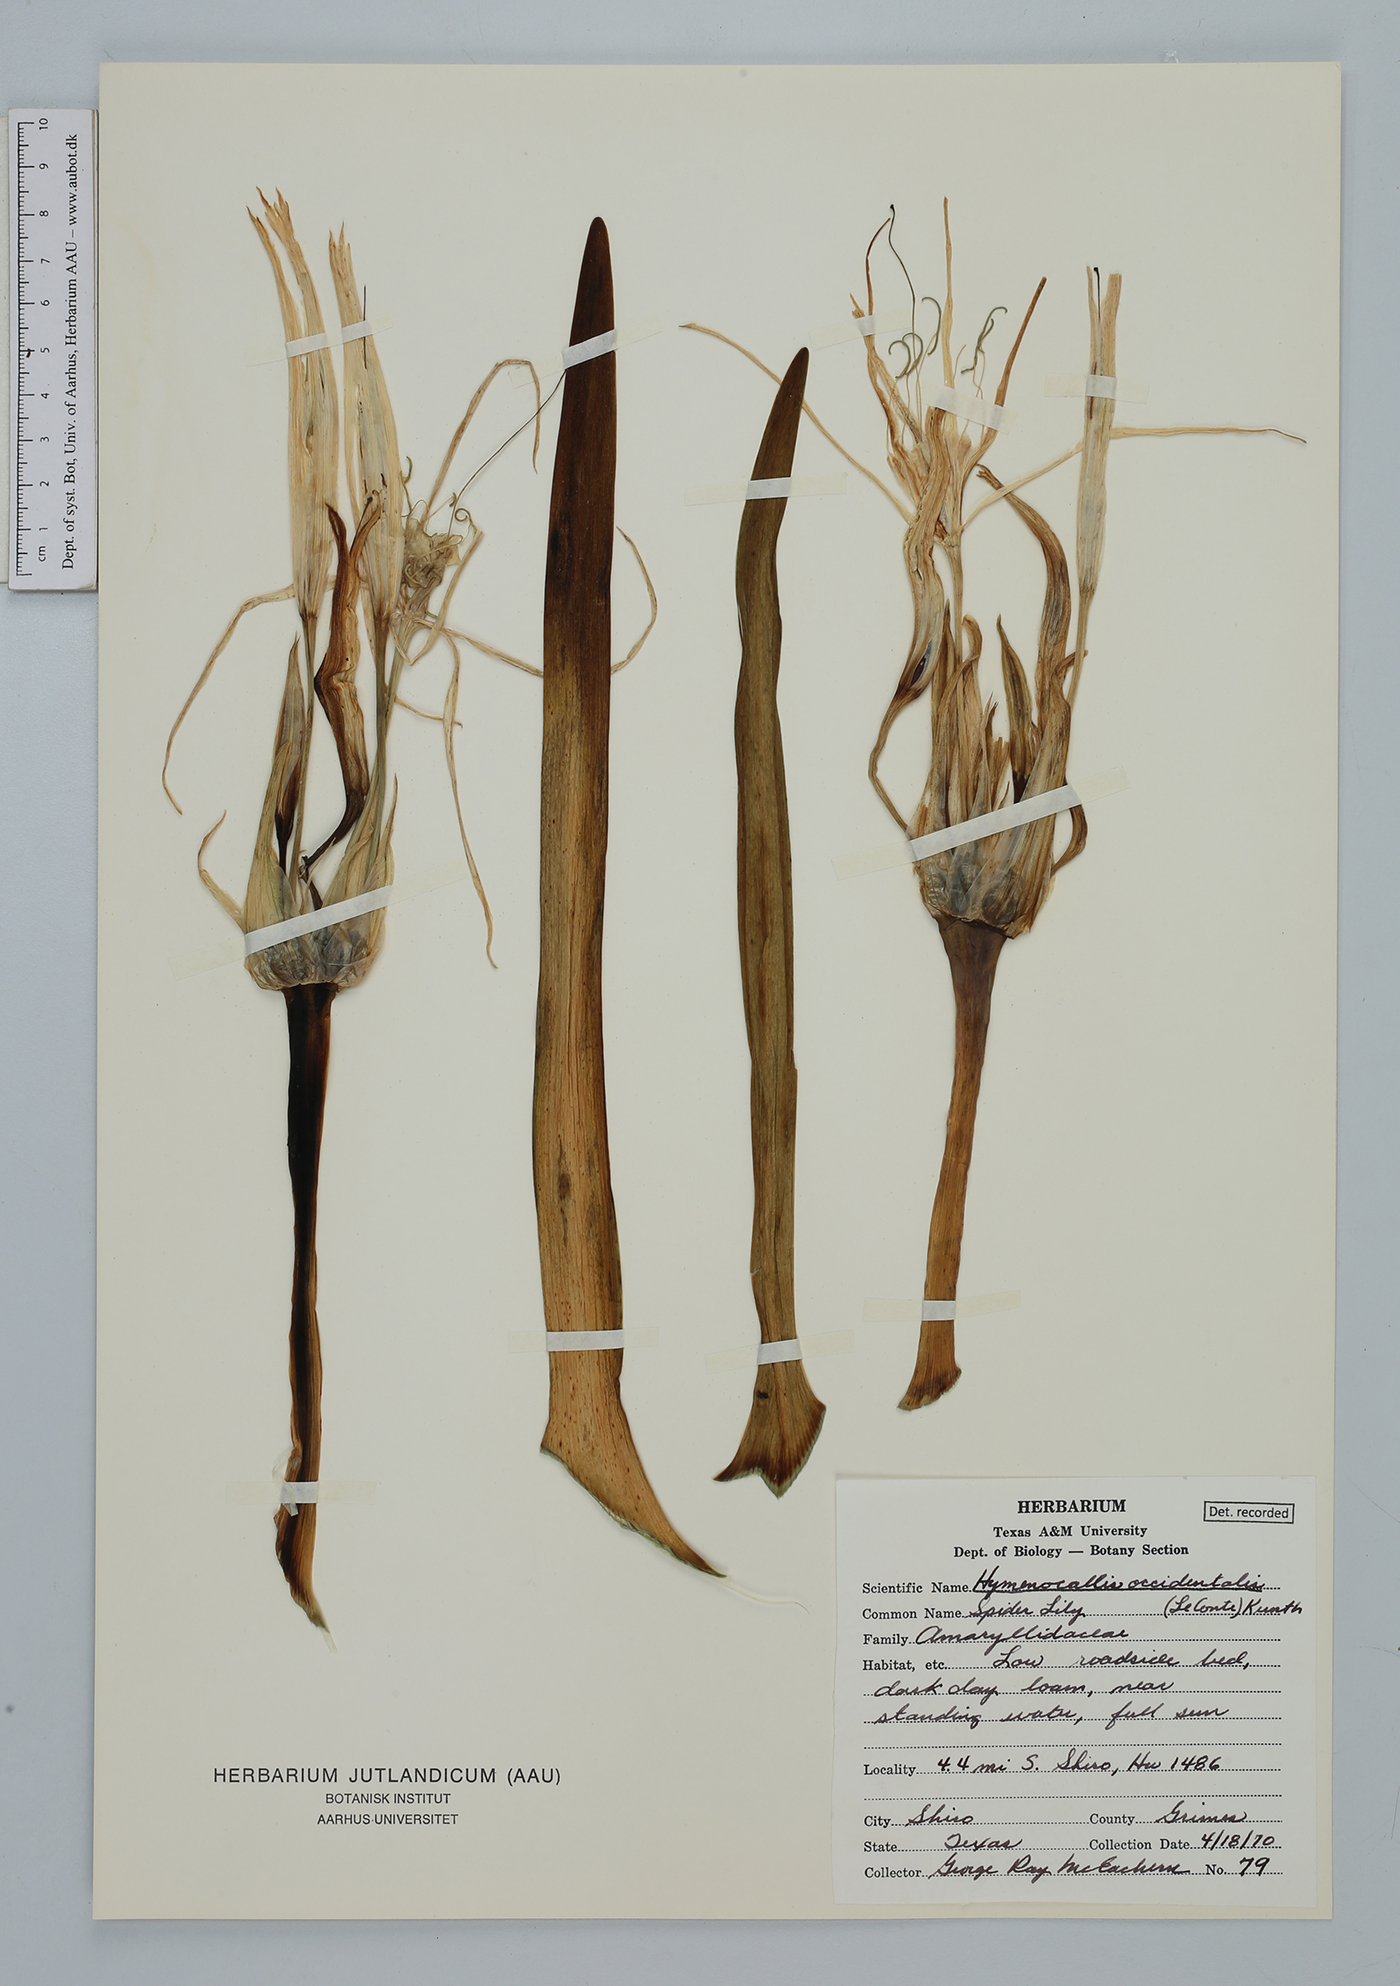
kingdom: Plantae
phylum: Tracheophyta
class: Liliopsida
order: Asparagales
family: Amaryllidaceae
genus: Hymenocallis
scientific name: Hymenocallis occidentalis
